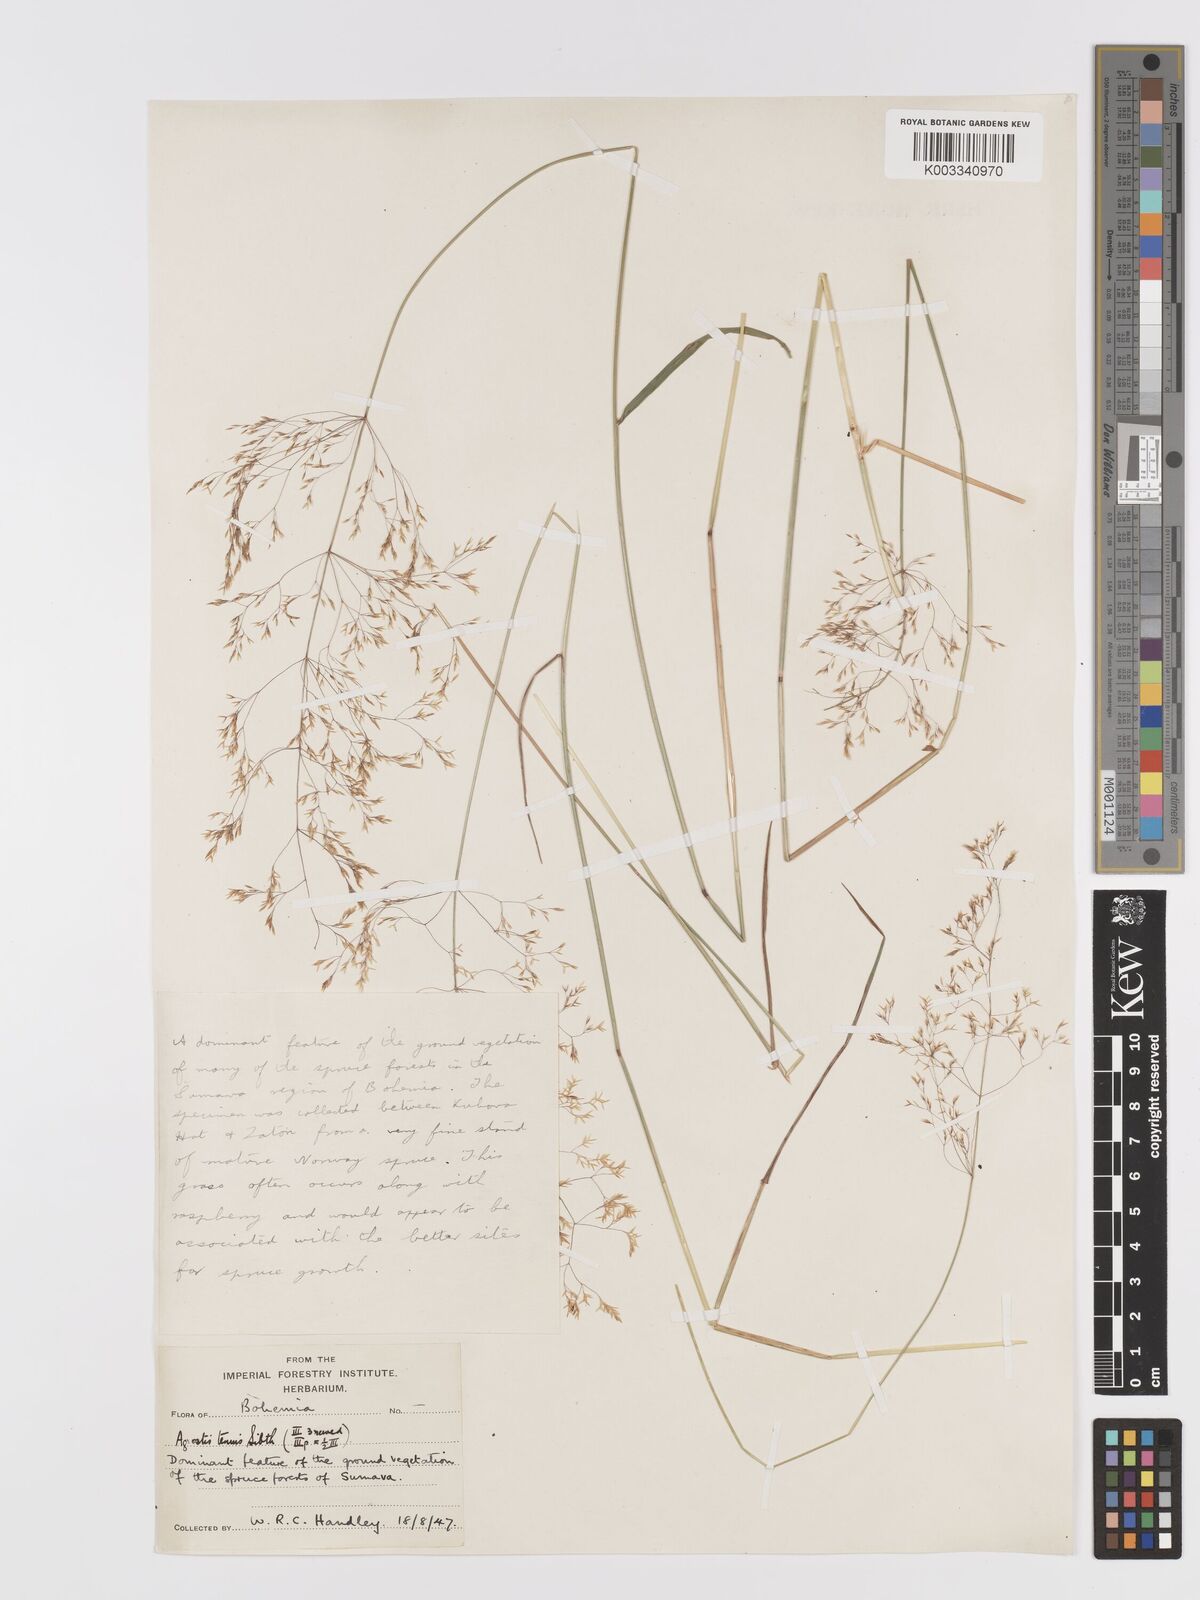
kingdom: Plantae
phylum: Tracheophyta
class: Liliopsida
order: Poales
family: Poaceae
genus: Agrostis
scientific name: Agrostis capillaris
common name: Colonial bentgrass
